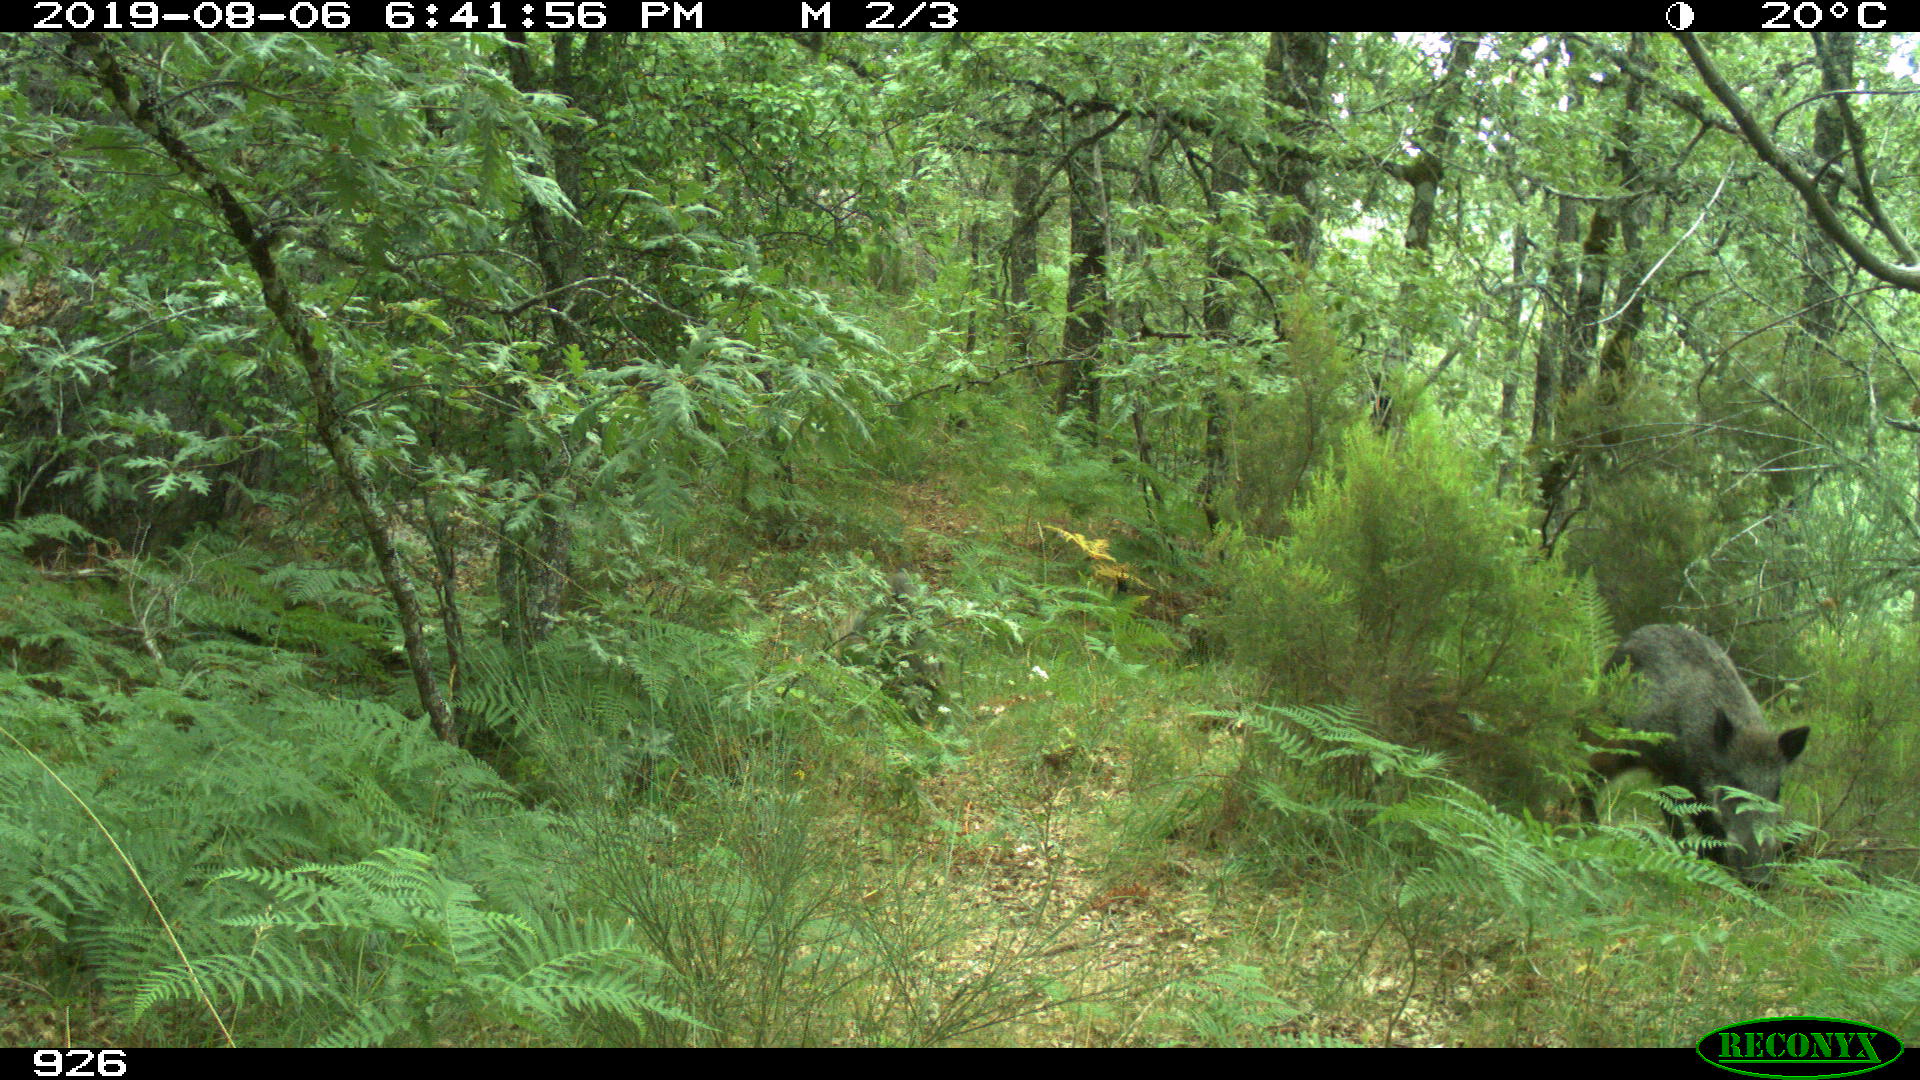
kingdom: Animalia
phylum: Chordata
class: Mammalia
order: Artiodactyla
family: Suidae
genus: Sus
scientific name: Sus scrofa
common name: Wild boar
